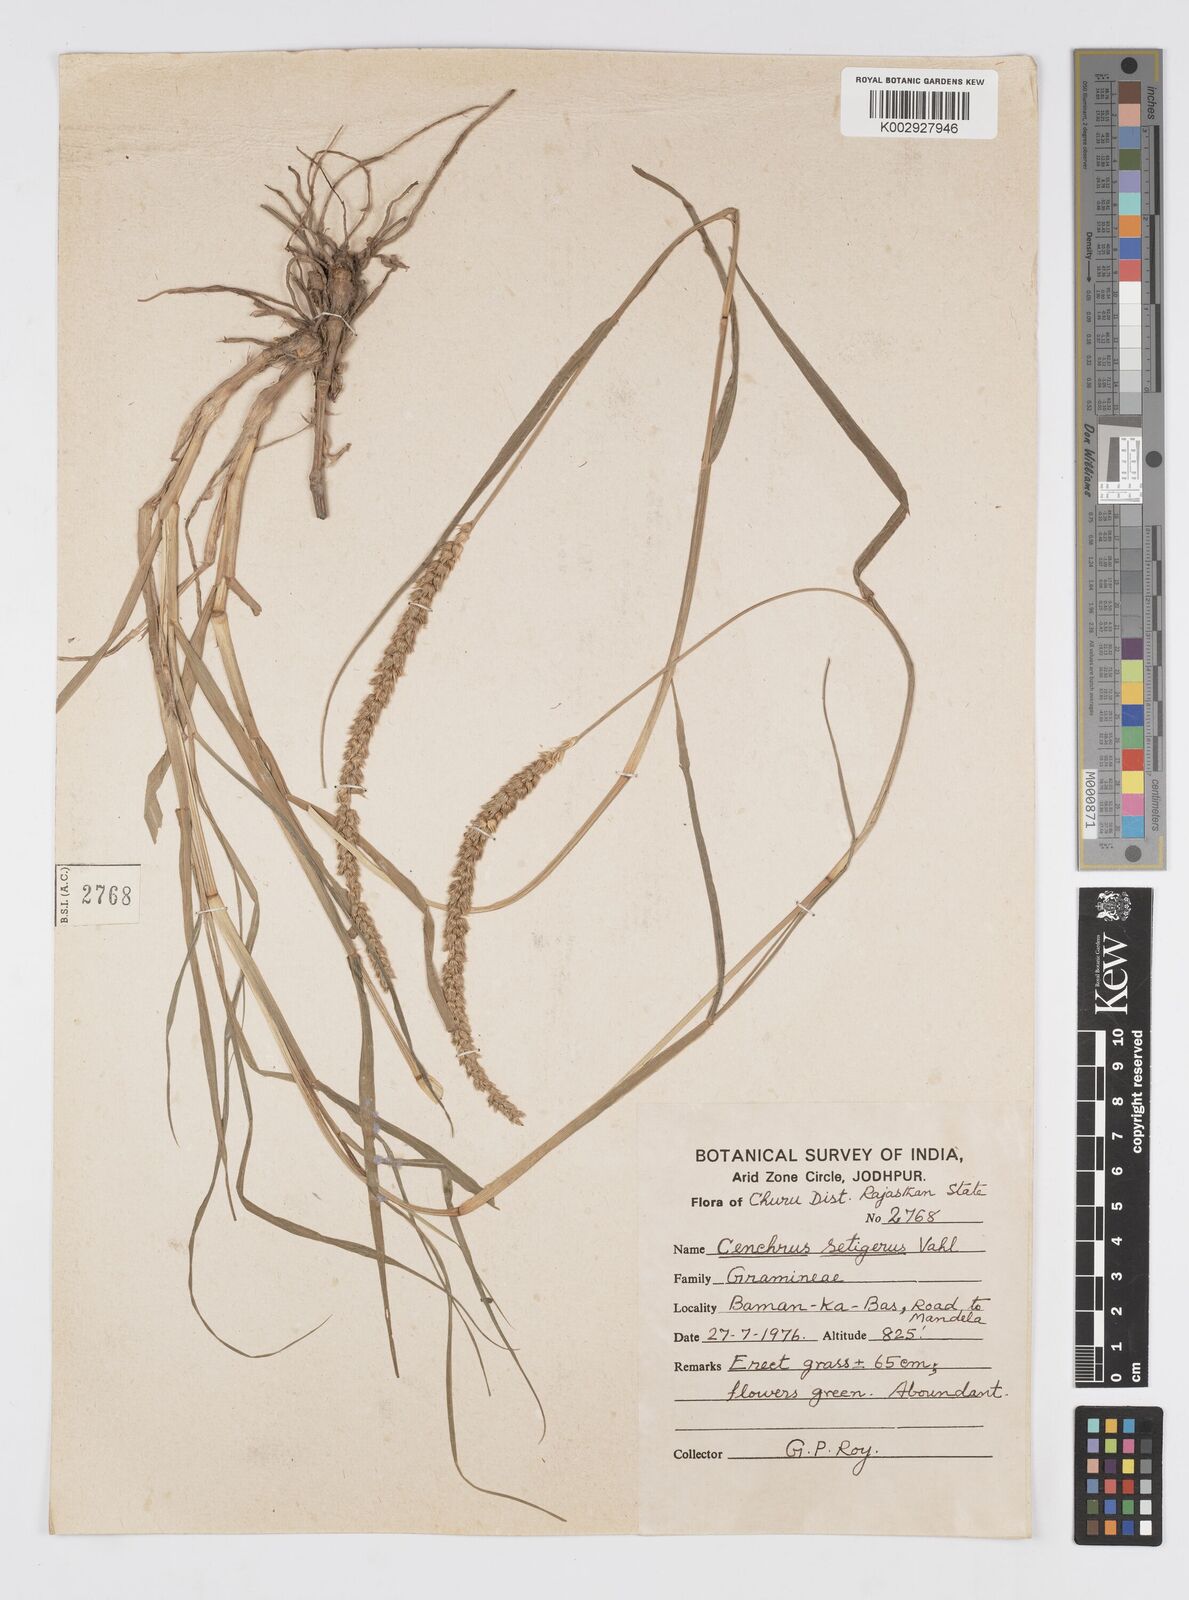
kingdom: Plantae
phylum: Tracheophyta
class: Liliopsida
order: Poales
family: Poaceae
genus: Cenchrus
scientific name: Cenchrus setigerus
